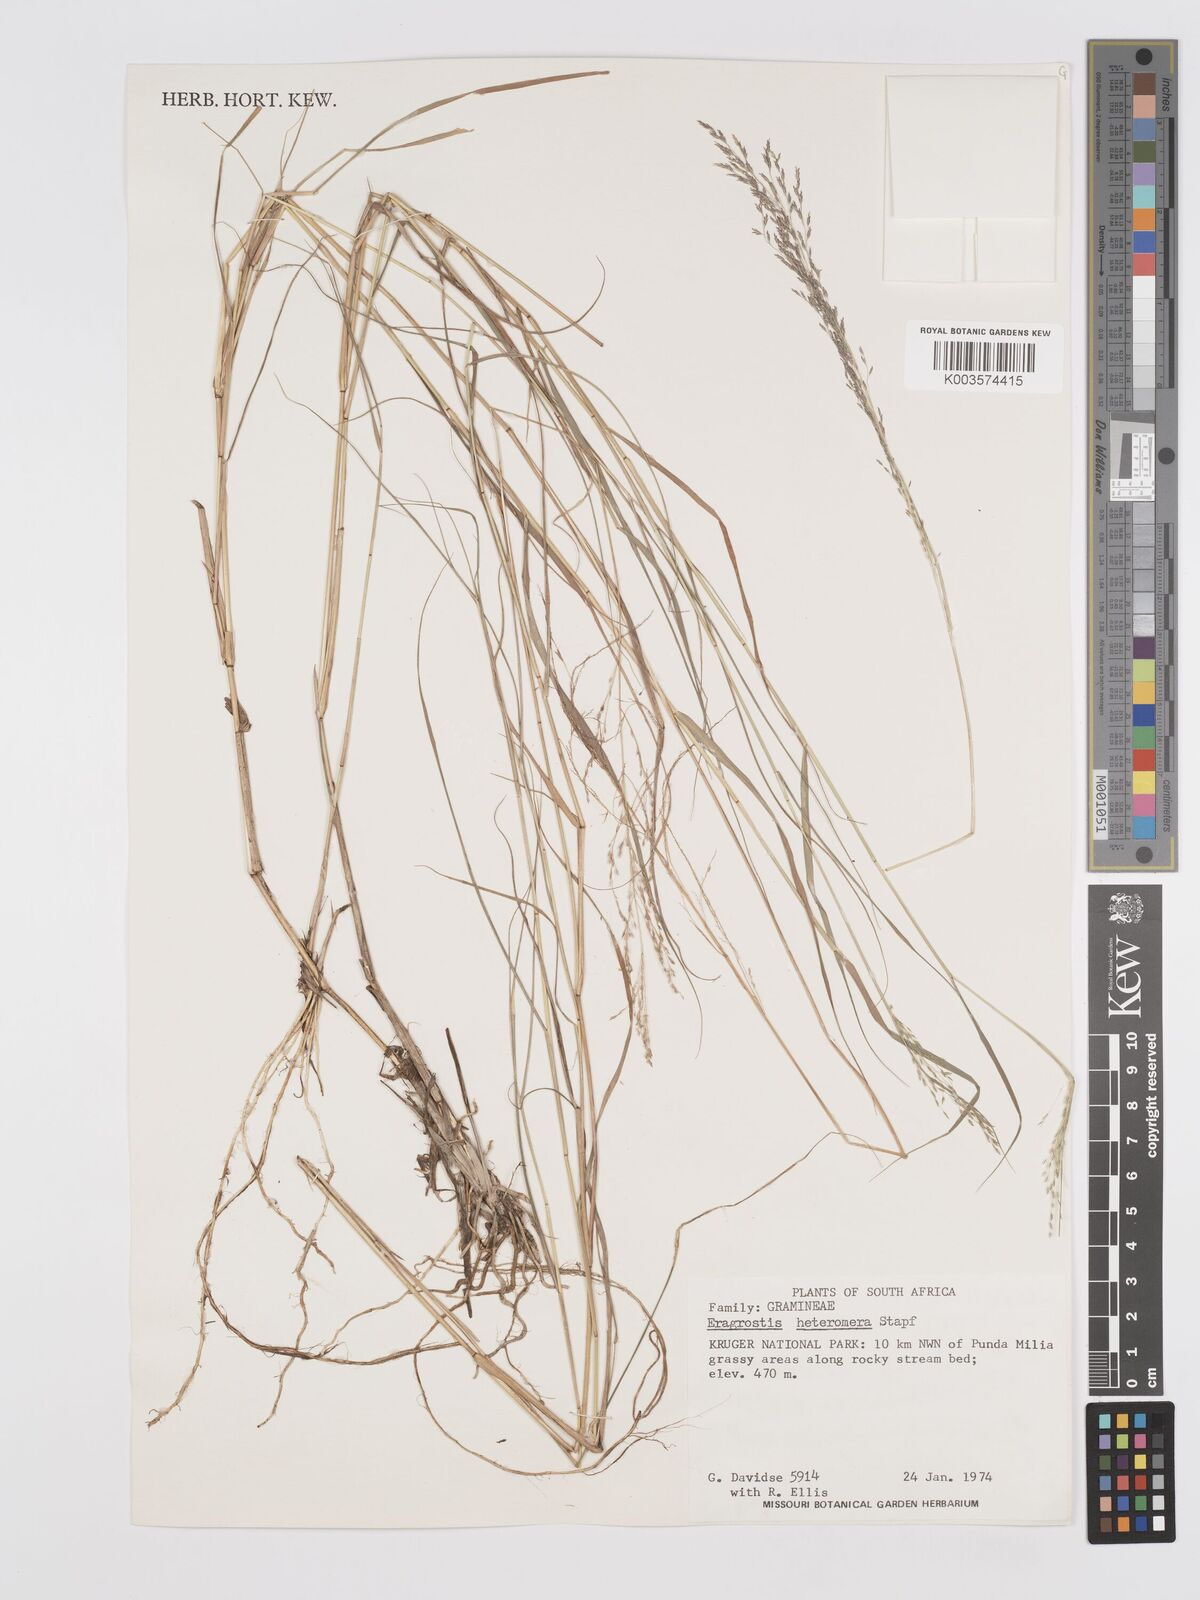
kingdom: Plantae
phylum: Tracheophyta
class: Liliopsida
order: Poales
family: Poaceae
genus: Eragrostis
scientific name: Eragrostis heteromera
